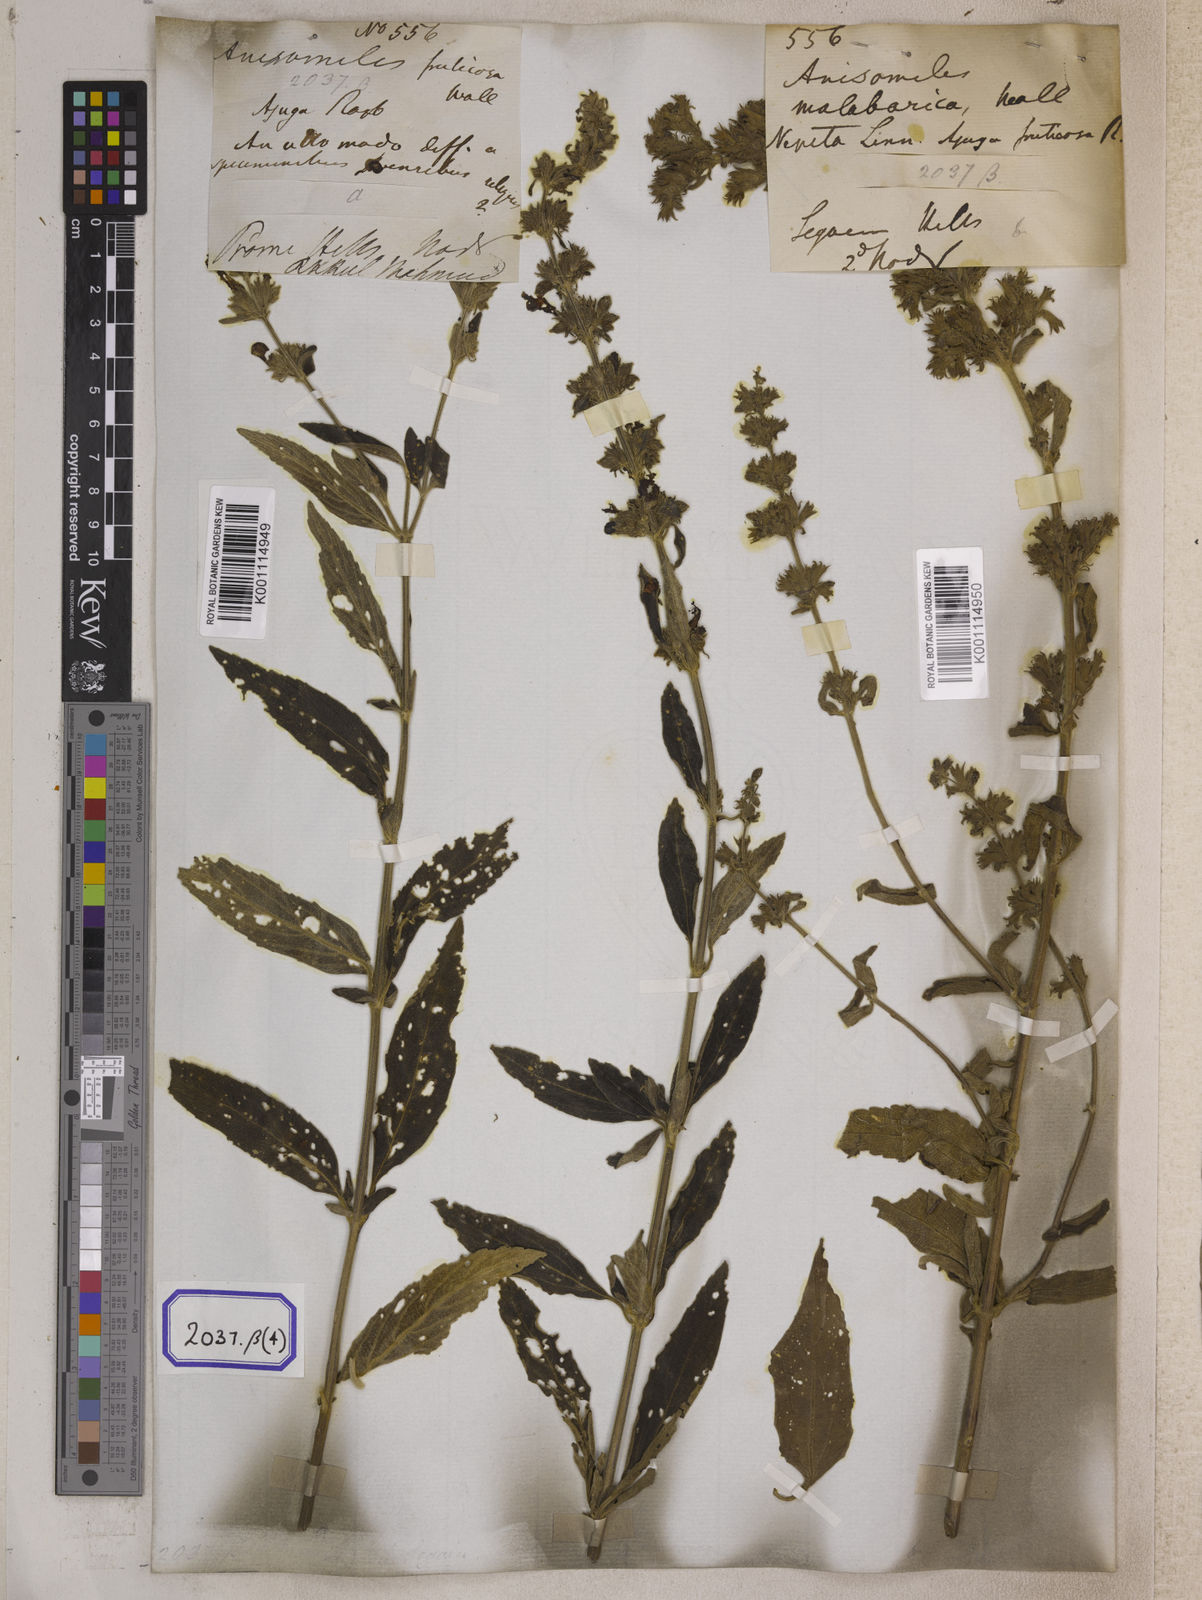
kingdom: Plantae
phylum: Tracheophyta
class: Magnoliopsida
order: Lamiales
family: Lamiaceae
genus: Anisomeles
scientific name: Anisomeles
